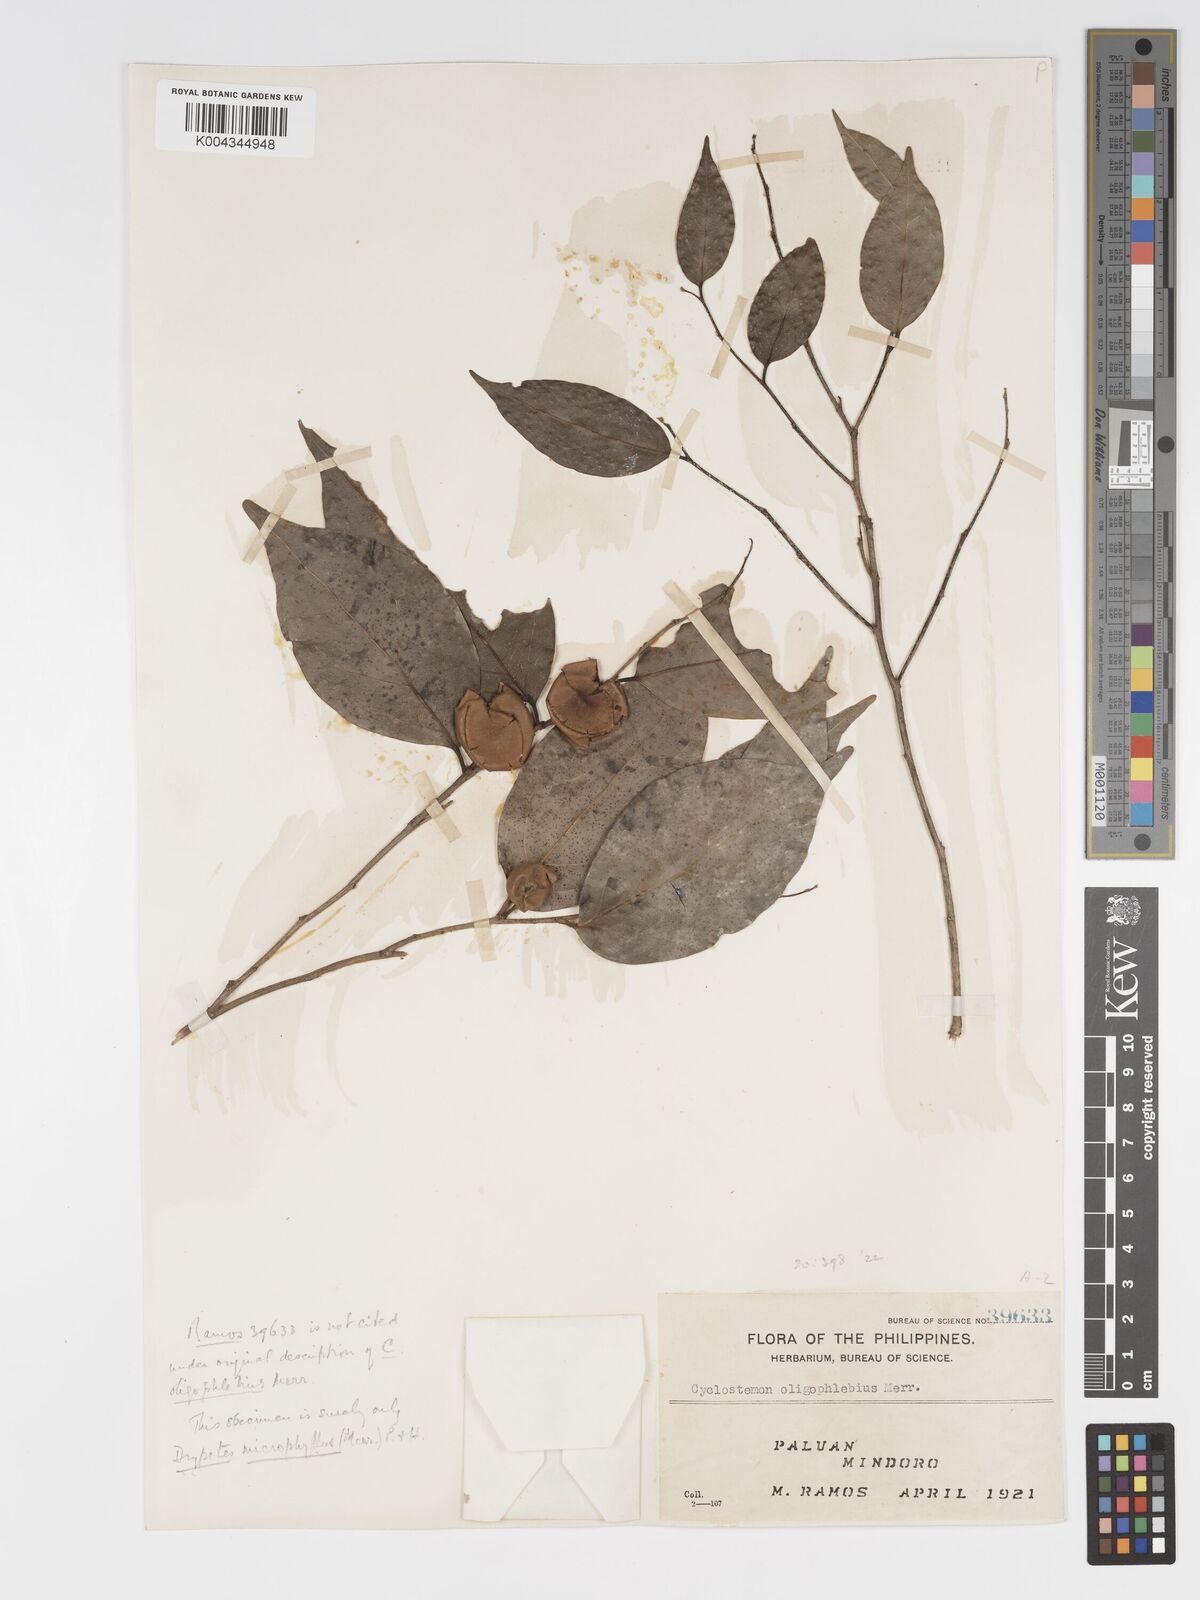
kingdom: Plantae
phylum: Tracheophyta
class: Magnoliopsida
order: Malpighiales
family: Putranjivaceae
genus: Drypetes
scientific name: Drypetes microphylla
